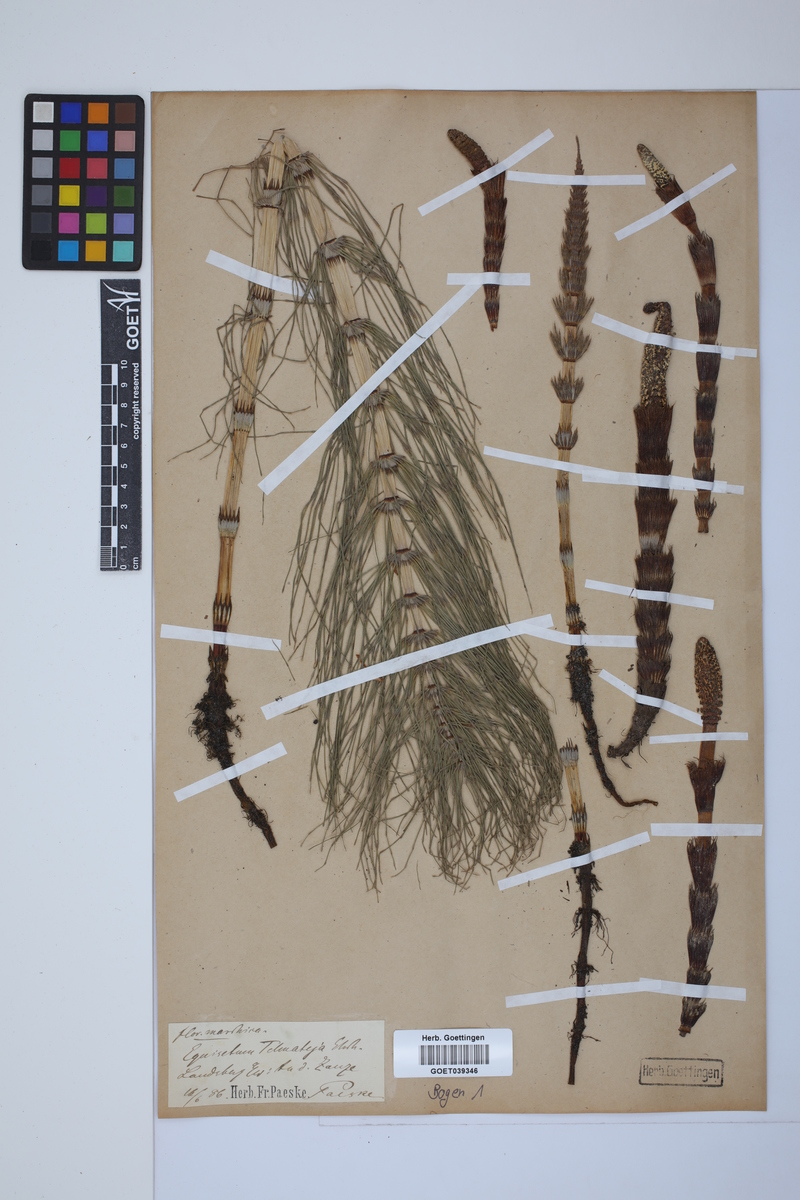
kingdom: Plantae
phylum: Tracheophyta
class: Polypodiopsida
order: Equisetales
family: Equisetaceae
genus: Equisetum
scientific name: Equisetum telmateia
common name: Great horsetail
